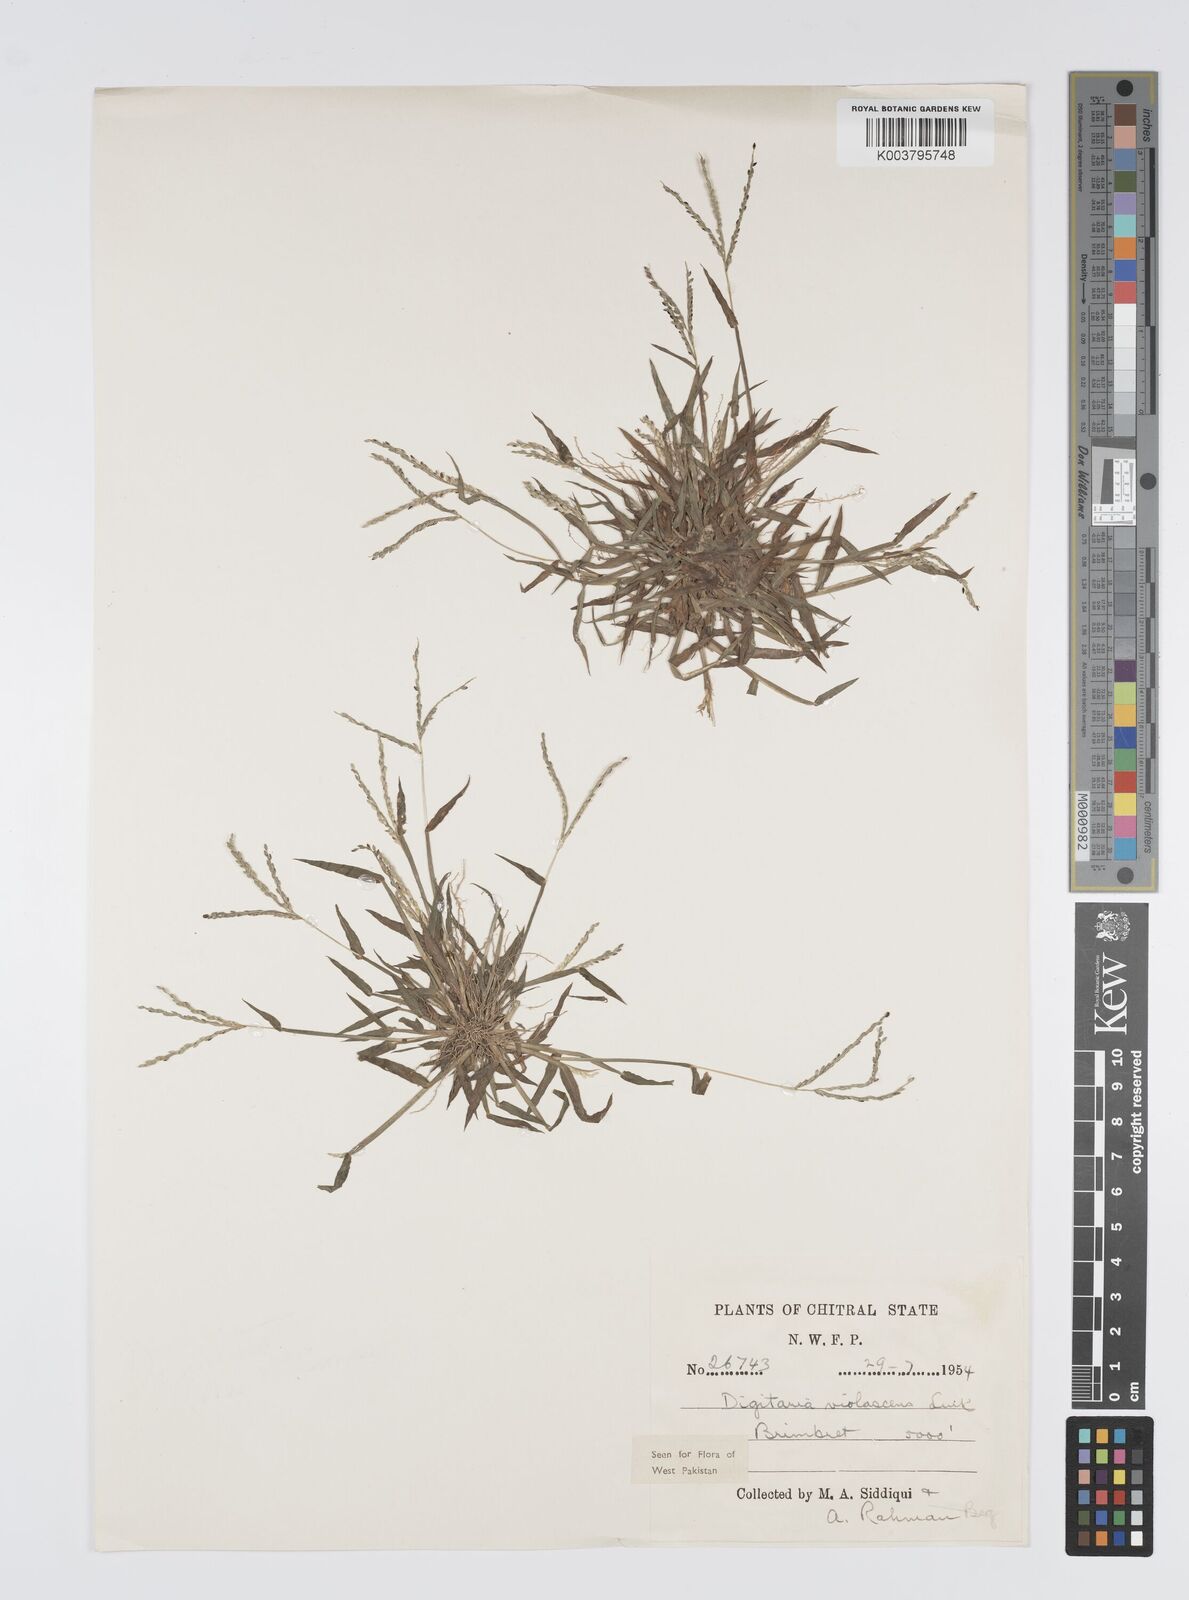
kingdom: Plantae
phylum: Tracheophyta
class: Liliopsida
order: Poales
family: Poaceae
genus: Digitaria
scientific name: Digitaria violascens
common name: Violet crabgrass
